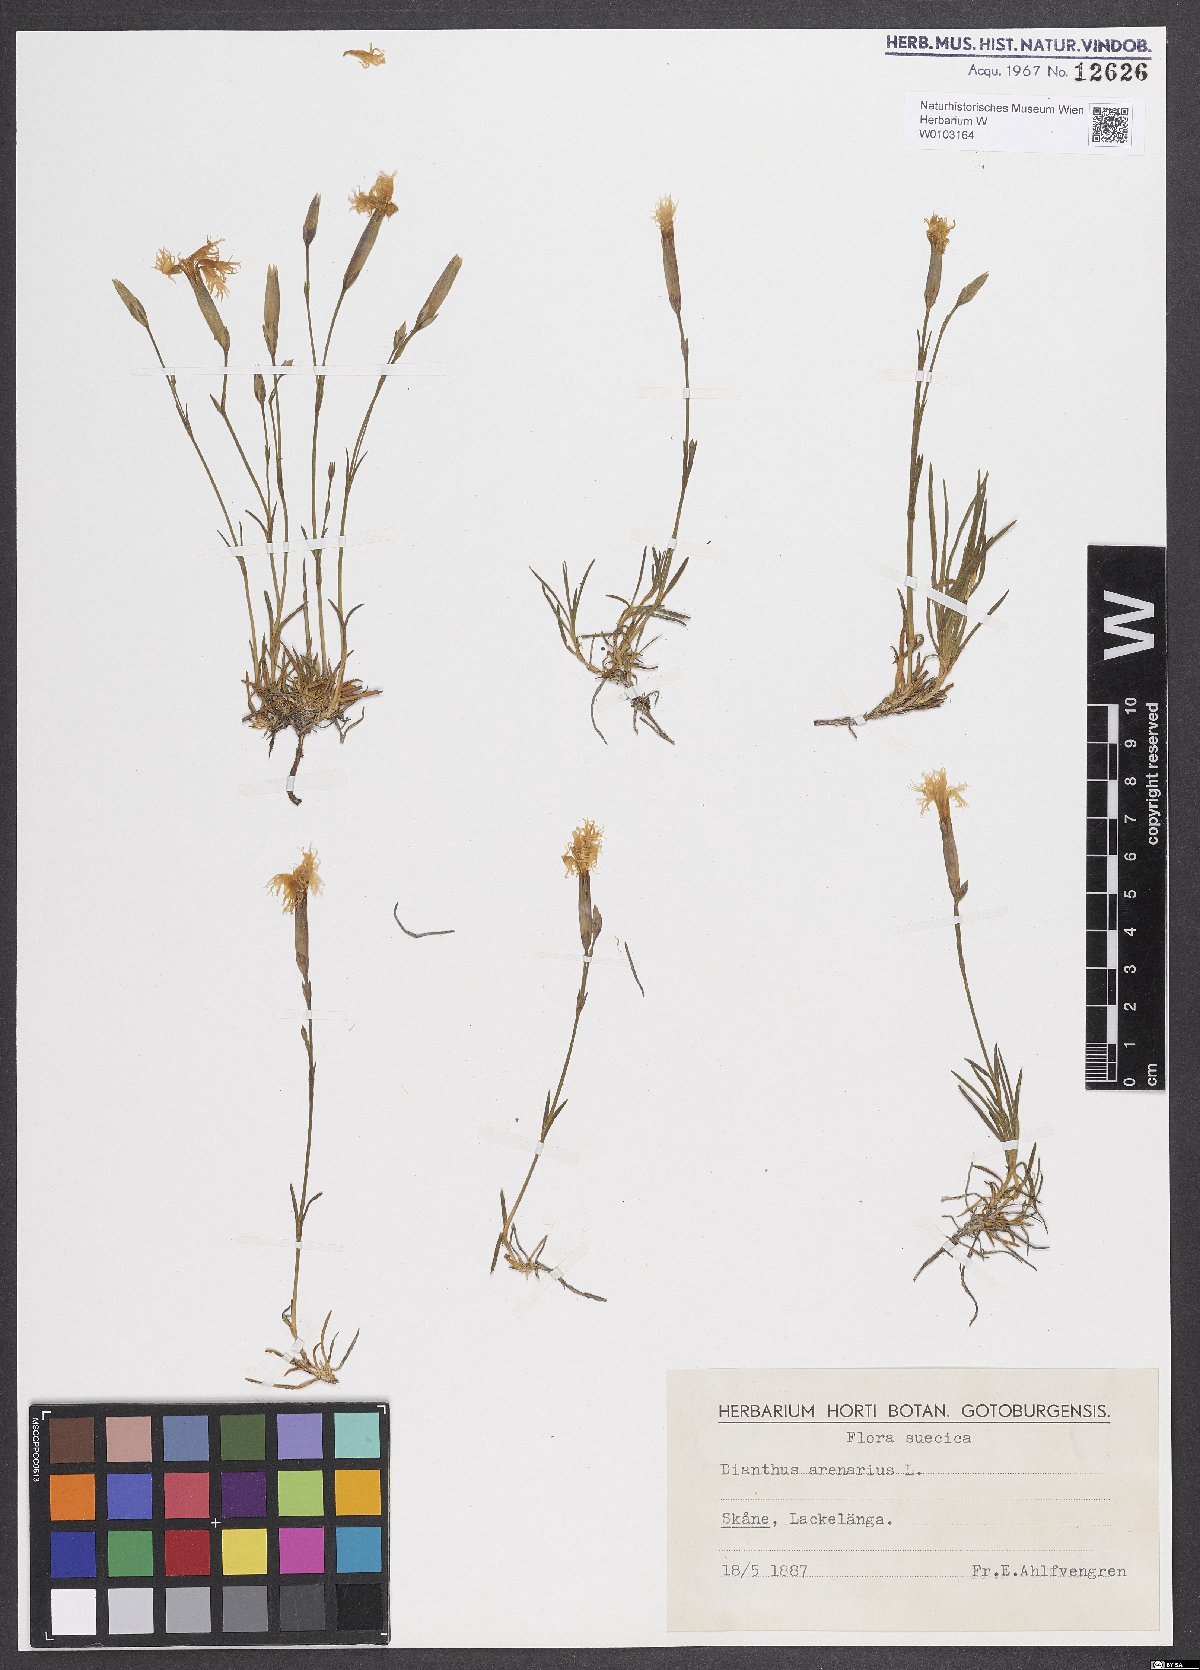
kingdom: Plantae
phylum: Tracheophyta
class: Magnoliopsida
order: Caryophyllales
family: Caryophyllaceae
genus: Dianthus
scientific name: Dianthus arenarius
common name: Stone pink
